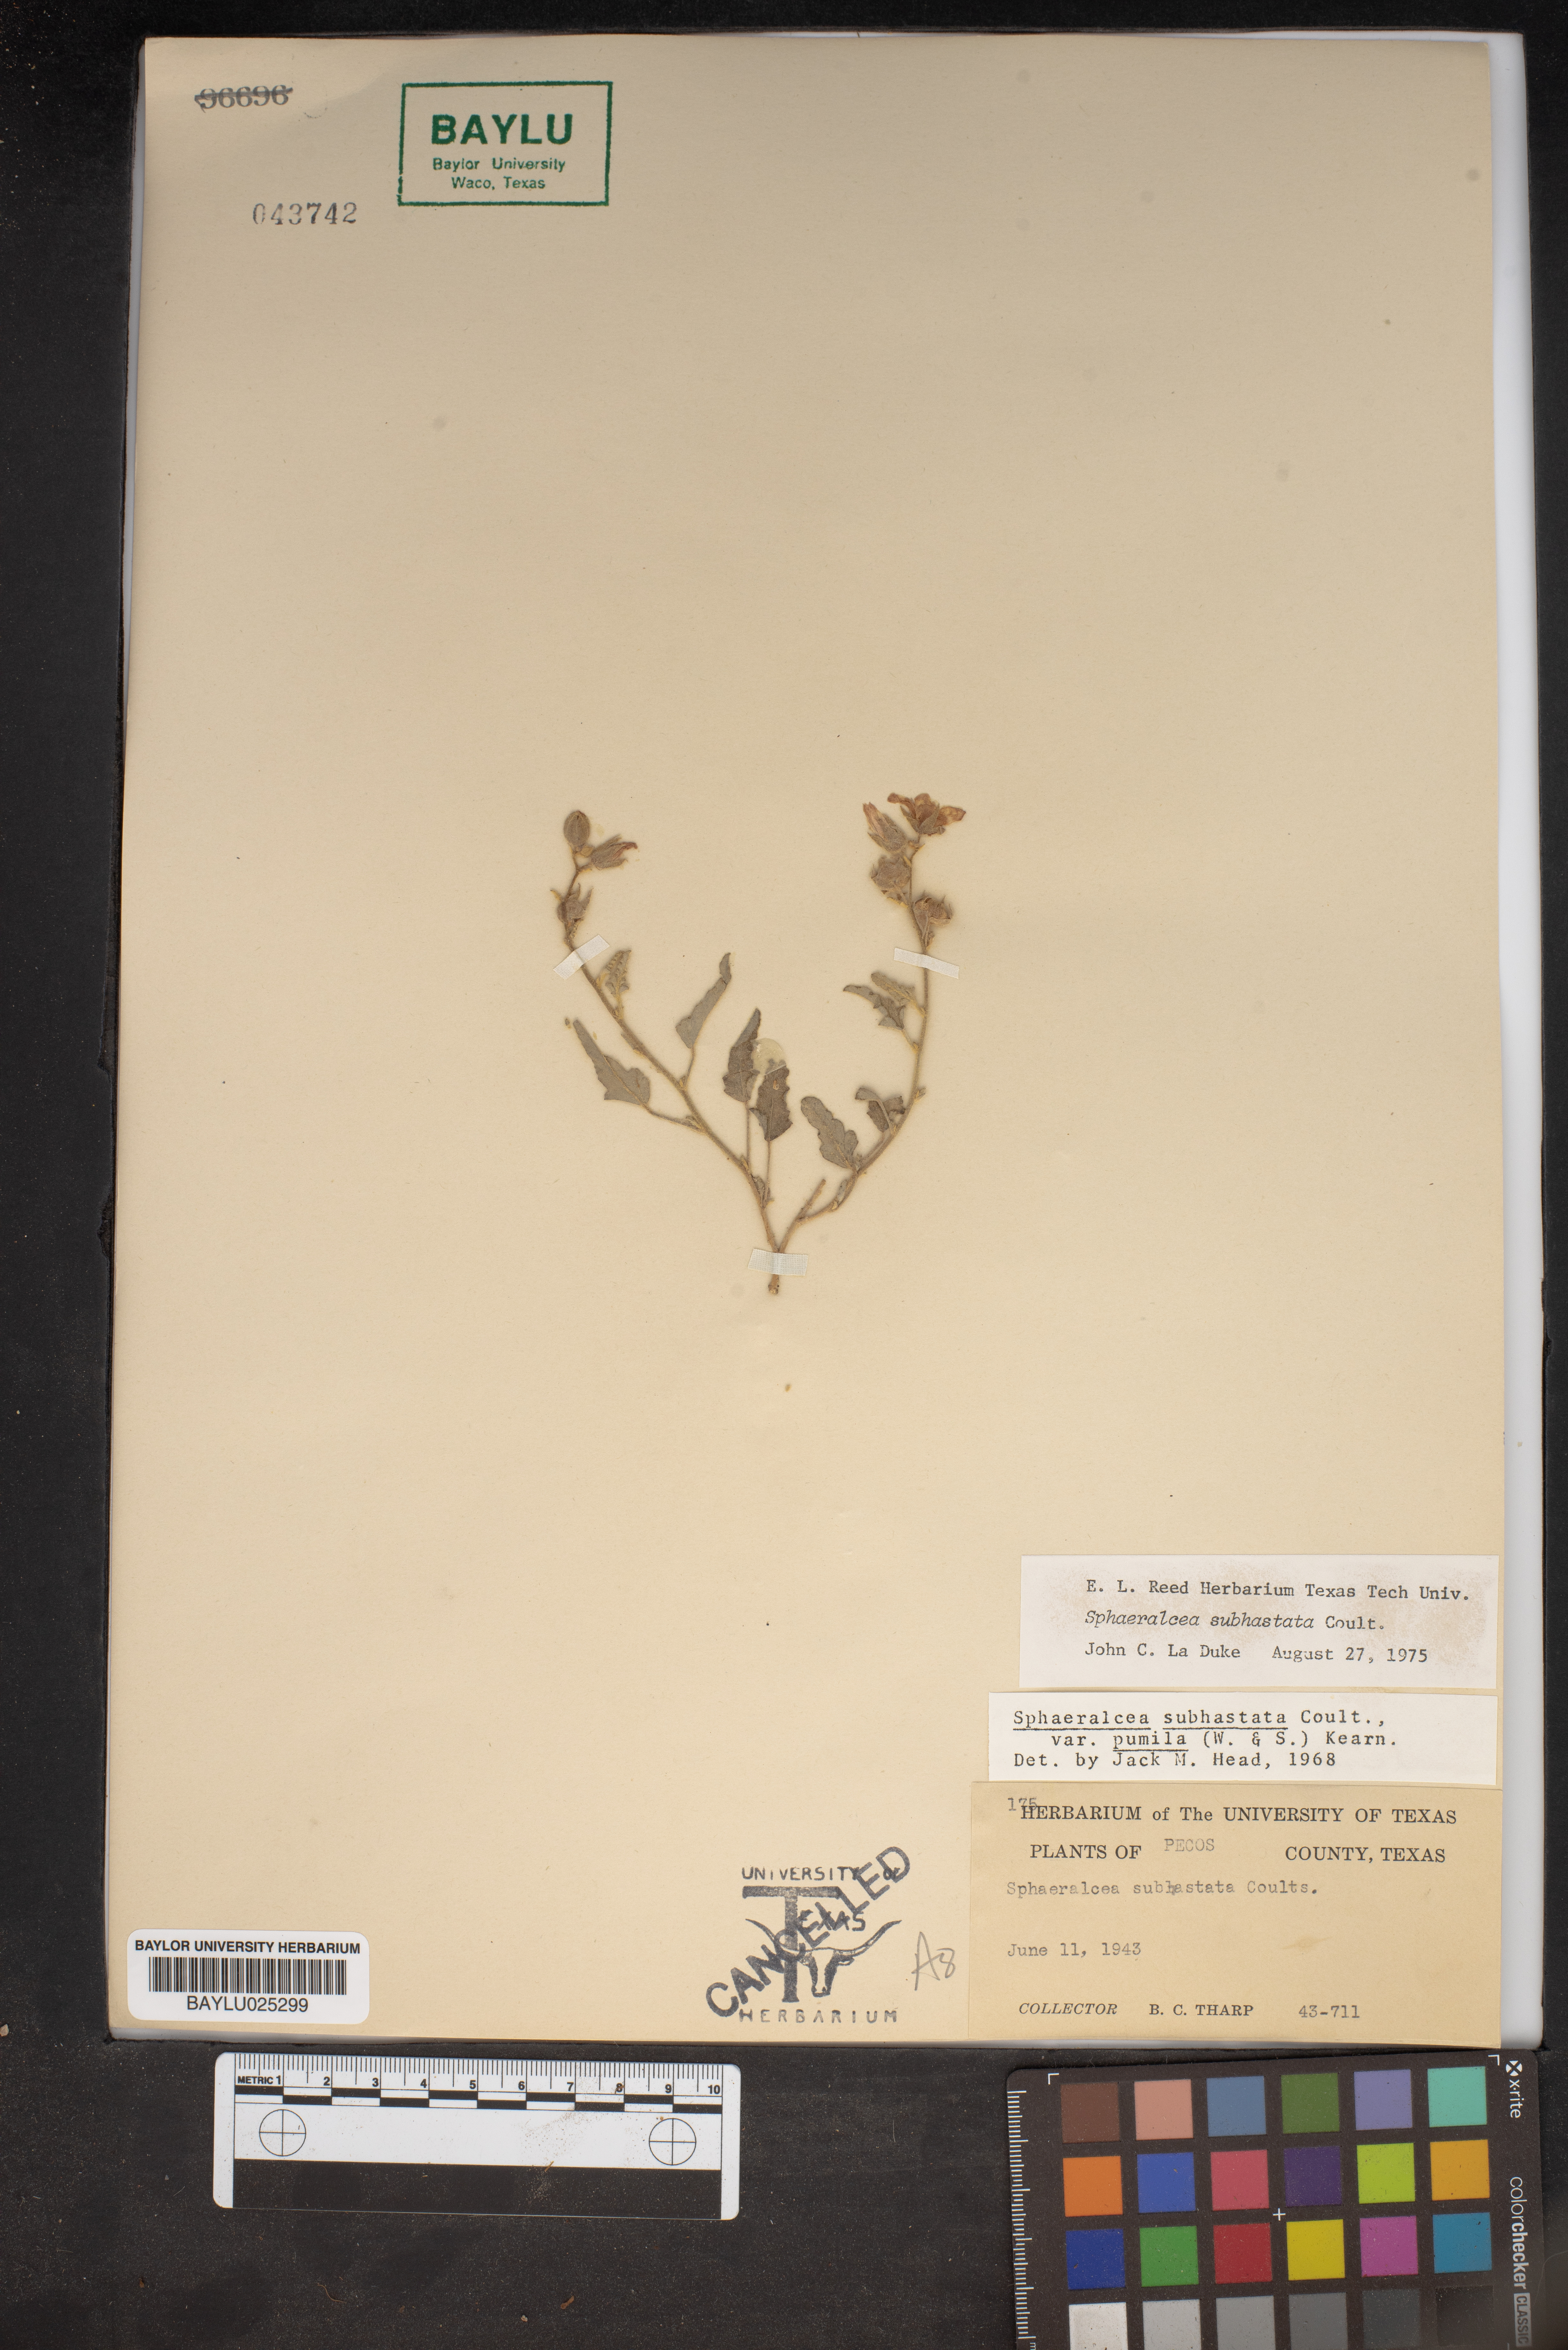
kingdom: Plantae
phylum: Tracheophyta
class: Magnoliopsida
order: Malvales
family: Malvaceae
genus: Sphaeralcea
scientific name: Sphaeralcea hastulata
